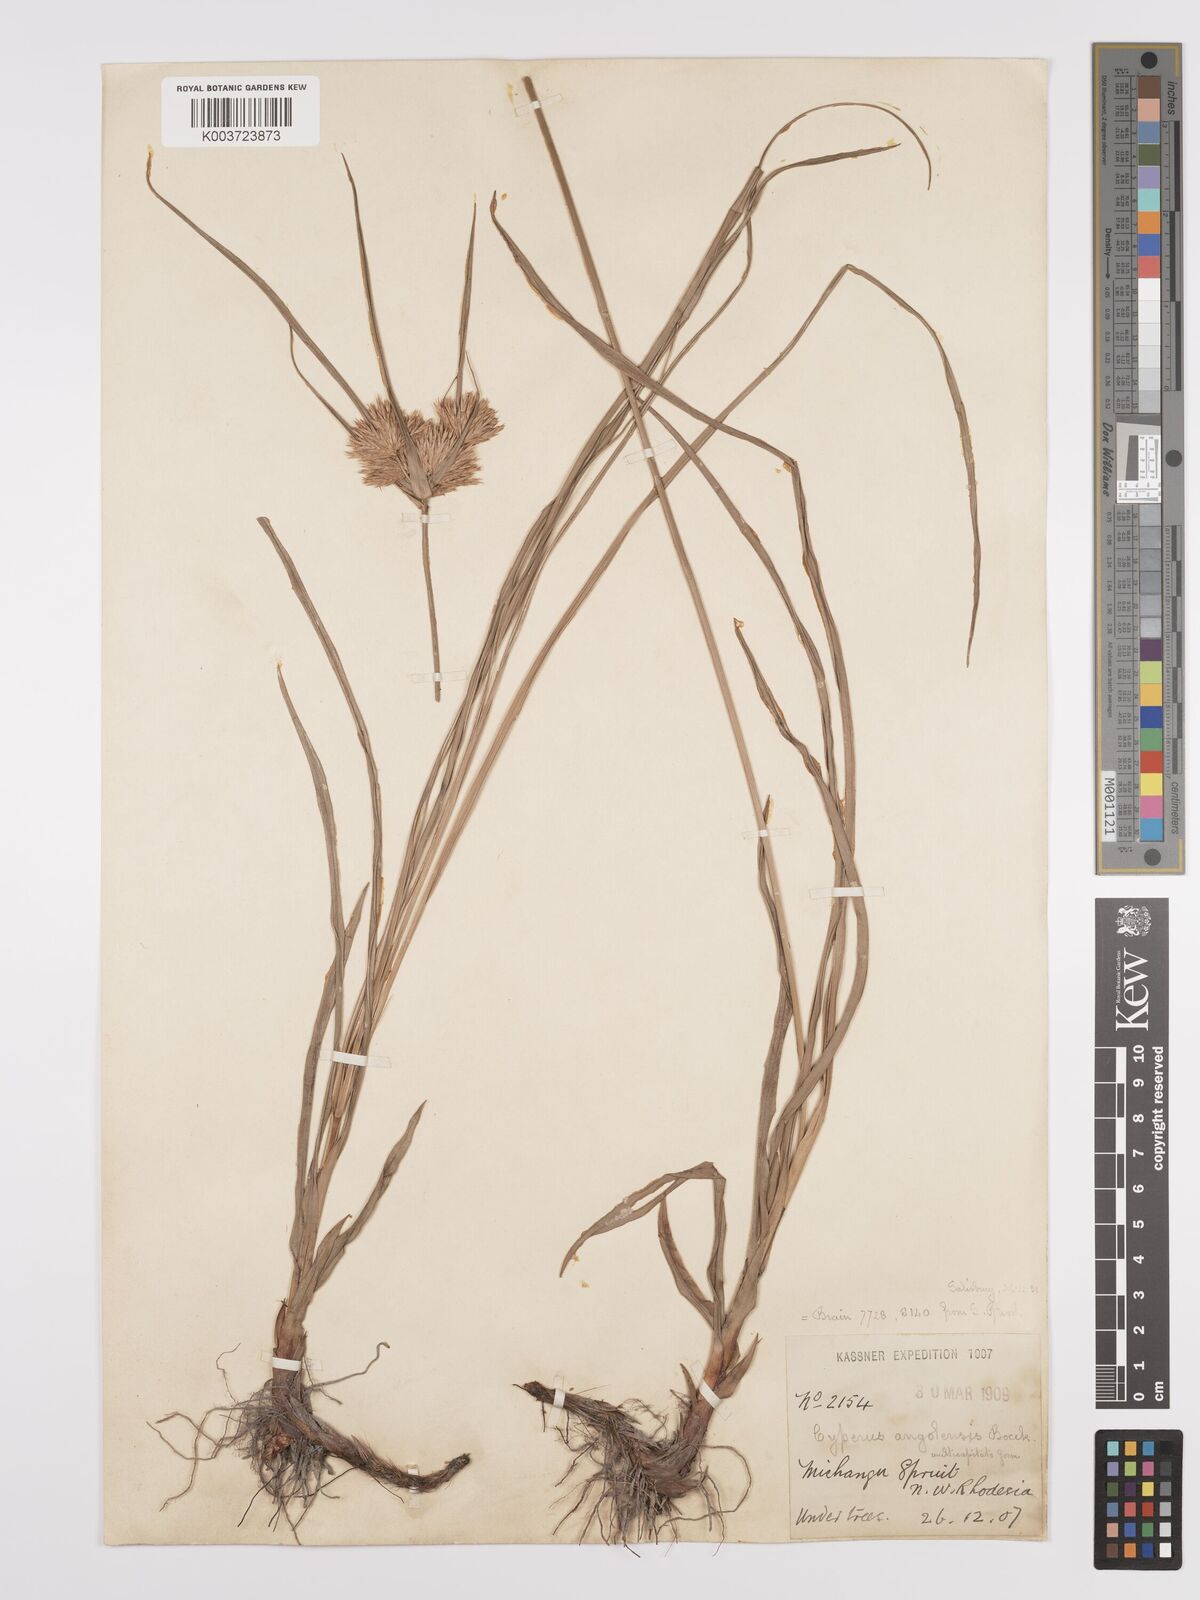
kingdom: Plantae
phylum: Tracheophyta
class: Liliopsida
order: Poales
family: Cyperaceae
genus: Cyperus
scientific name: Cyperus angolensis
